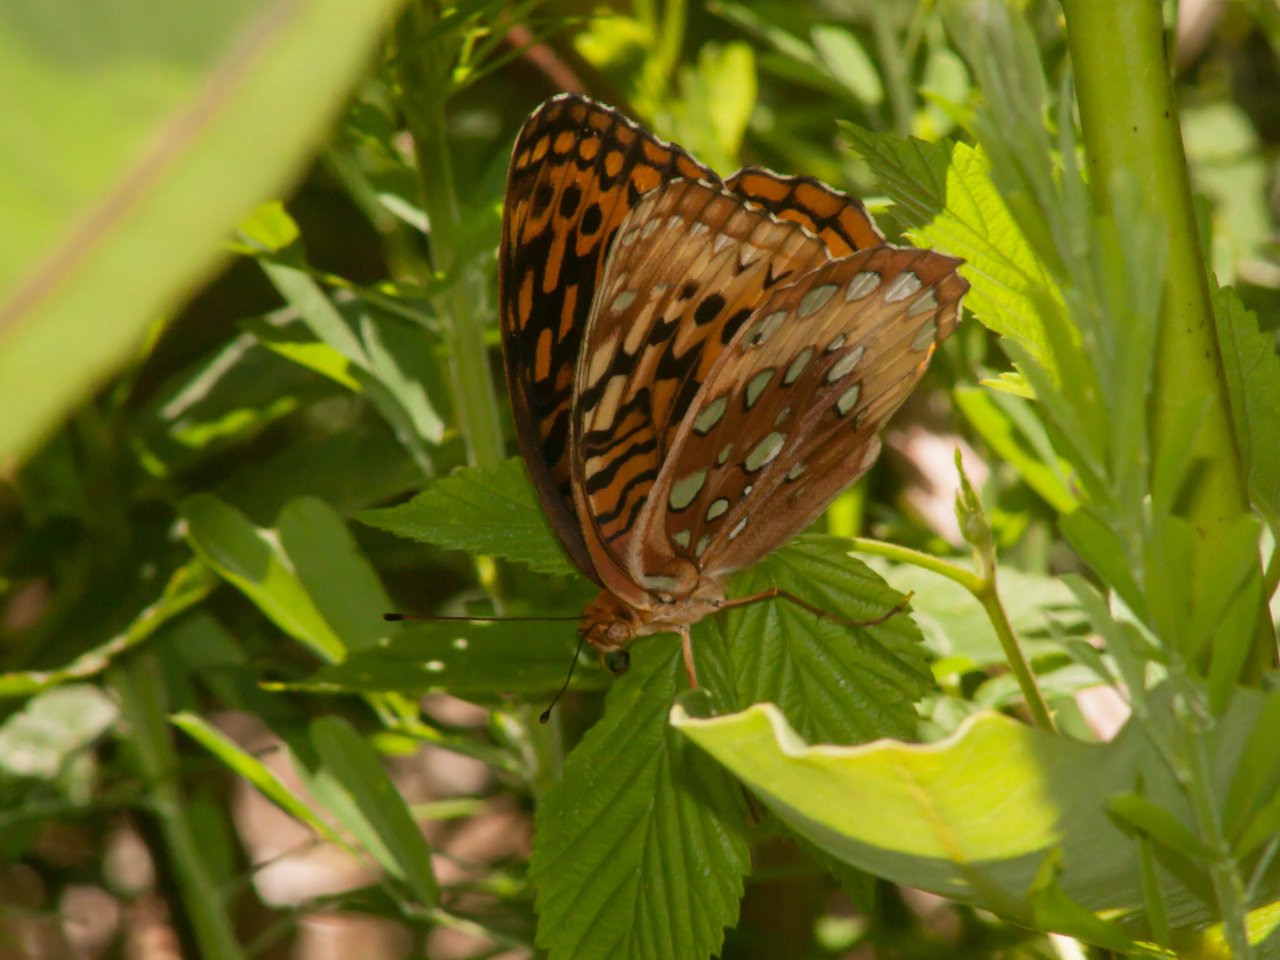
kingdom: Animalia
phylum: Arthropoda
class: Insecta
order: Lepidoptera
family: Nymphalidae
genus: Speyeria
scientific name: Speyeria cybele
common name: Great Spangled Fritillary
